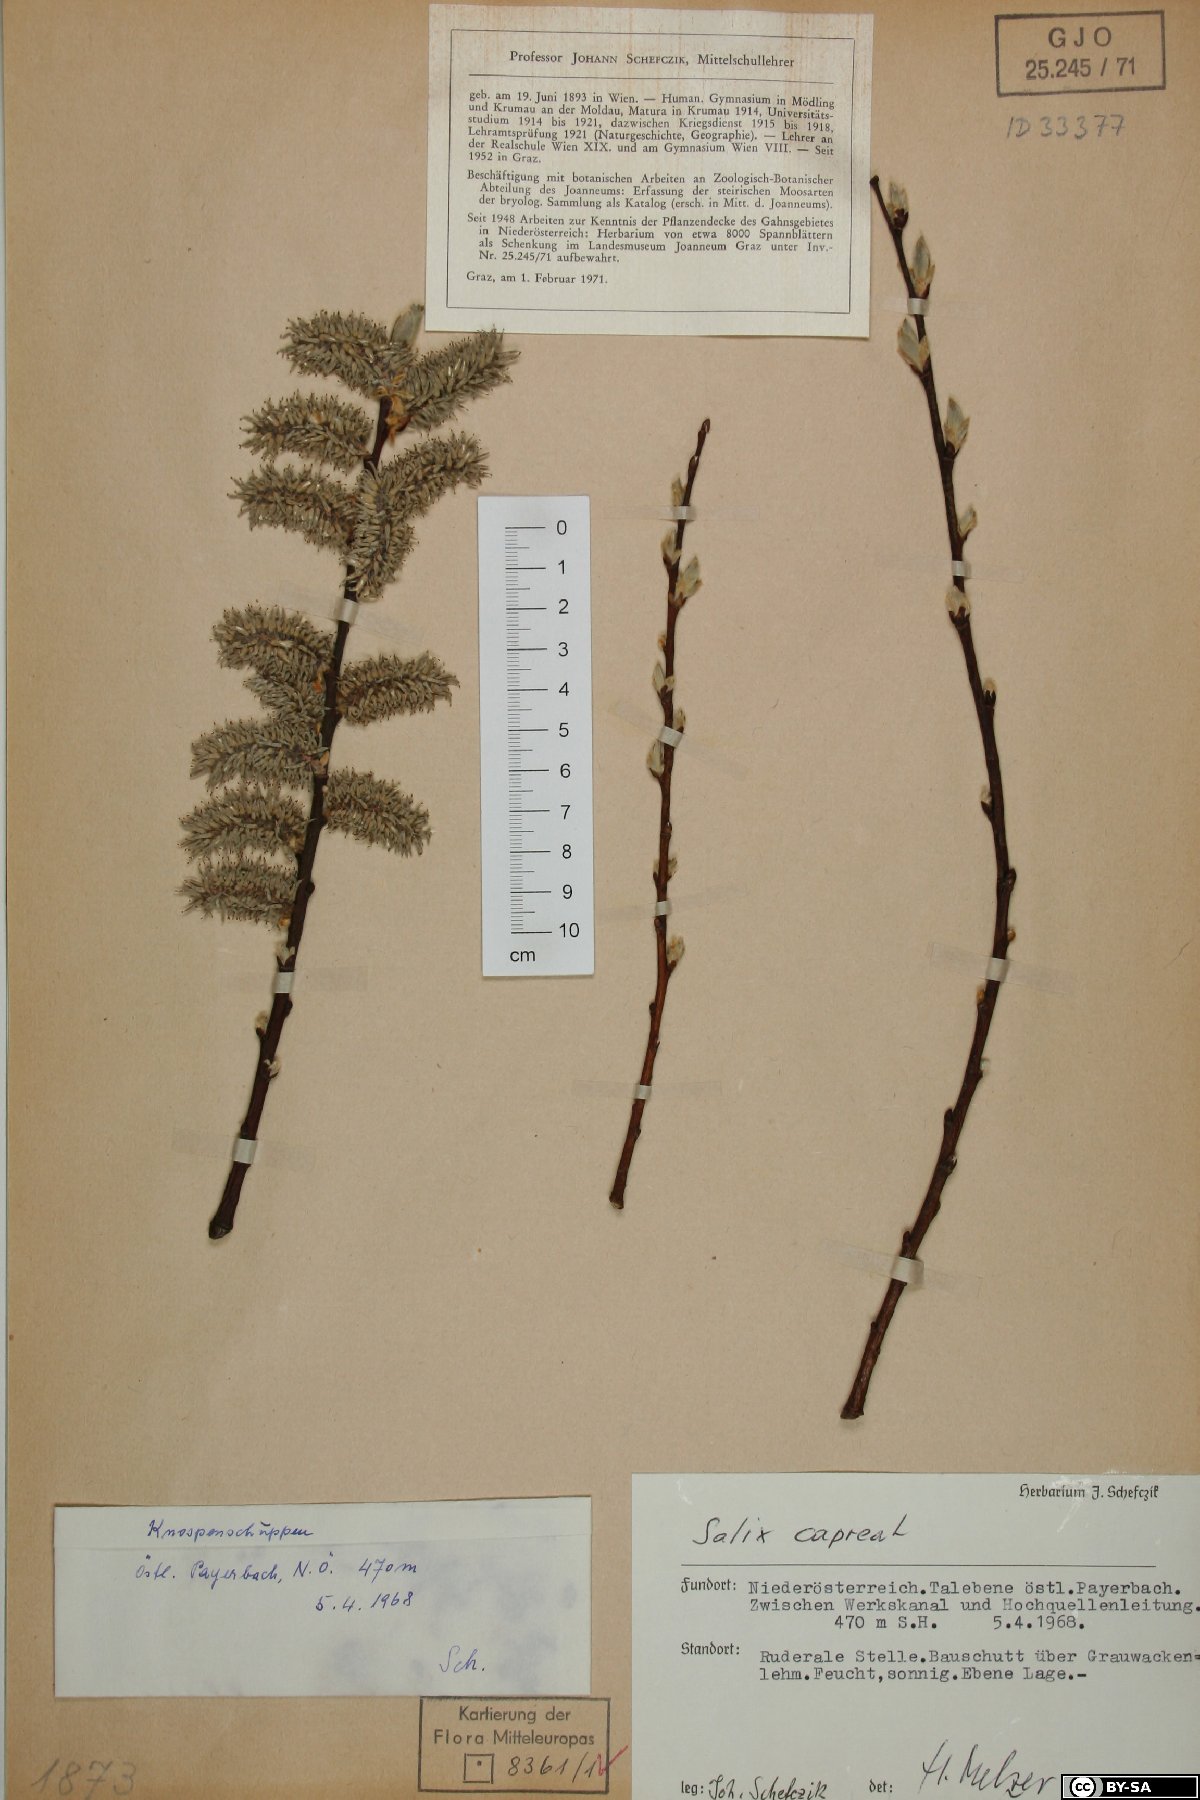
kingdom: Plantae
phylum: Tracheophyta
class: Magnoliopsida
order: Malpighiales
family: Salicaceae
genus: Salix
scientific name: Salix caprea
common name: Goat willow
